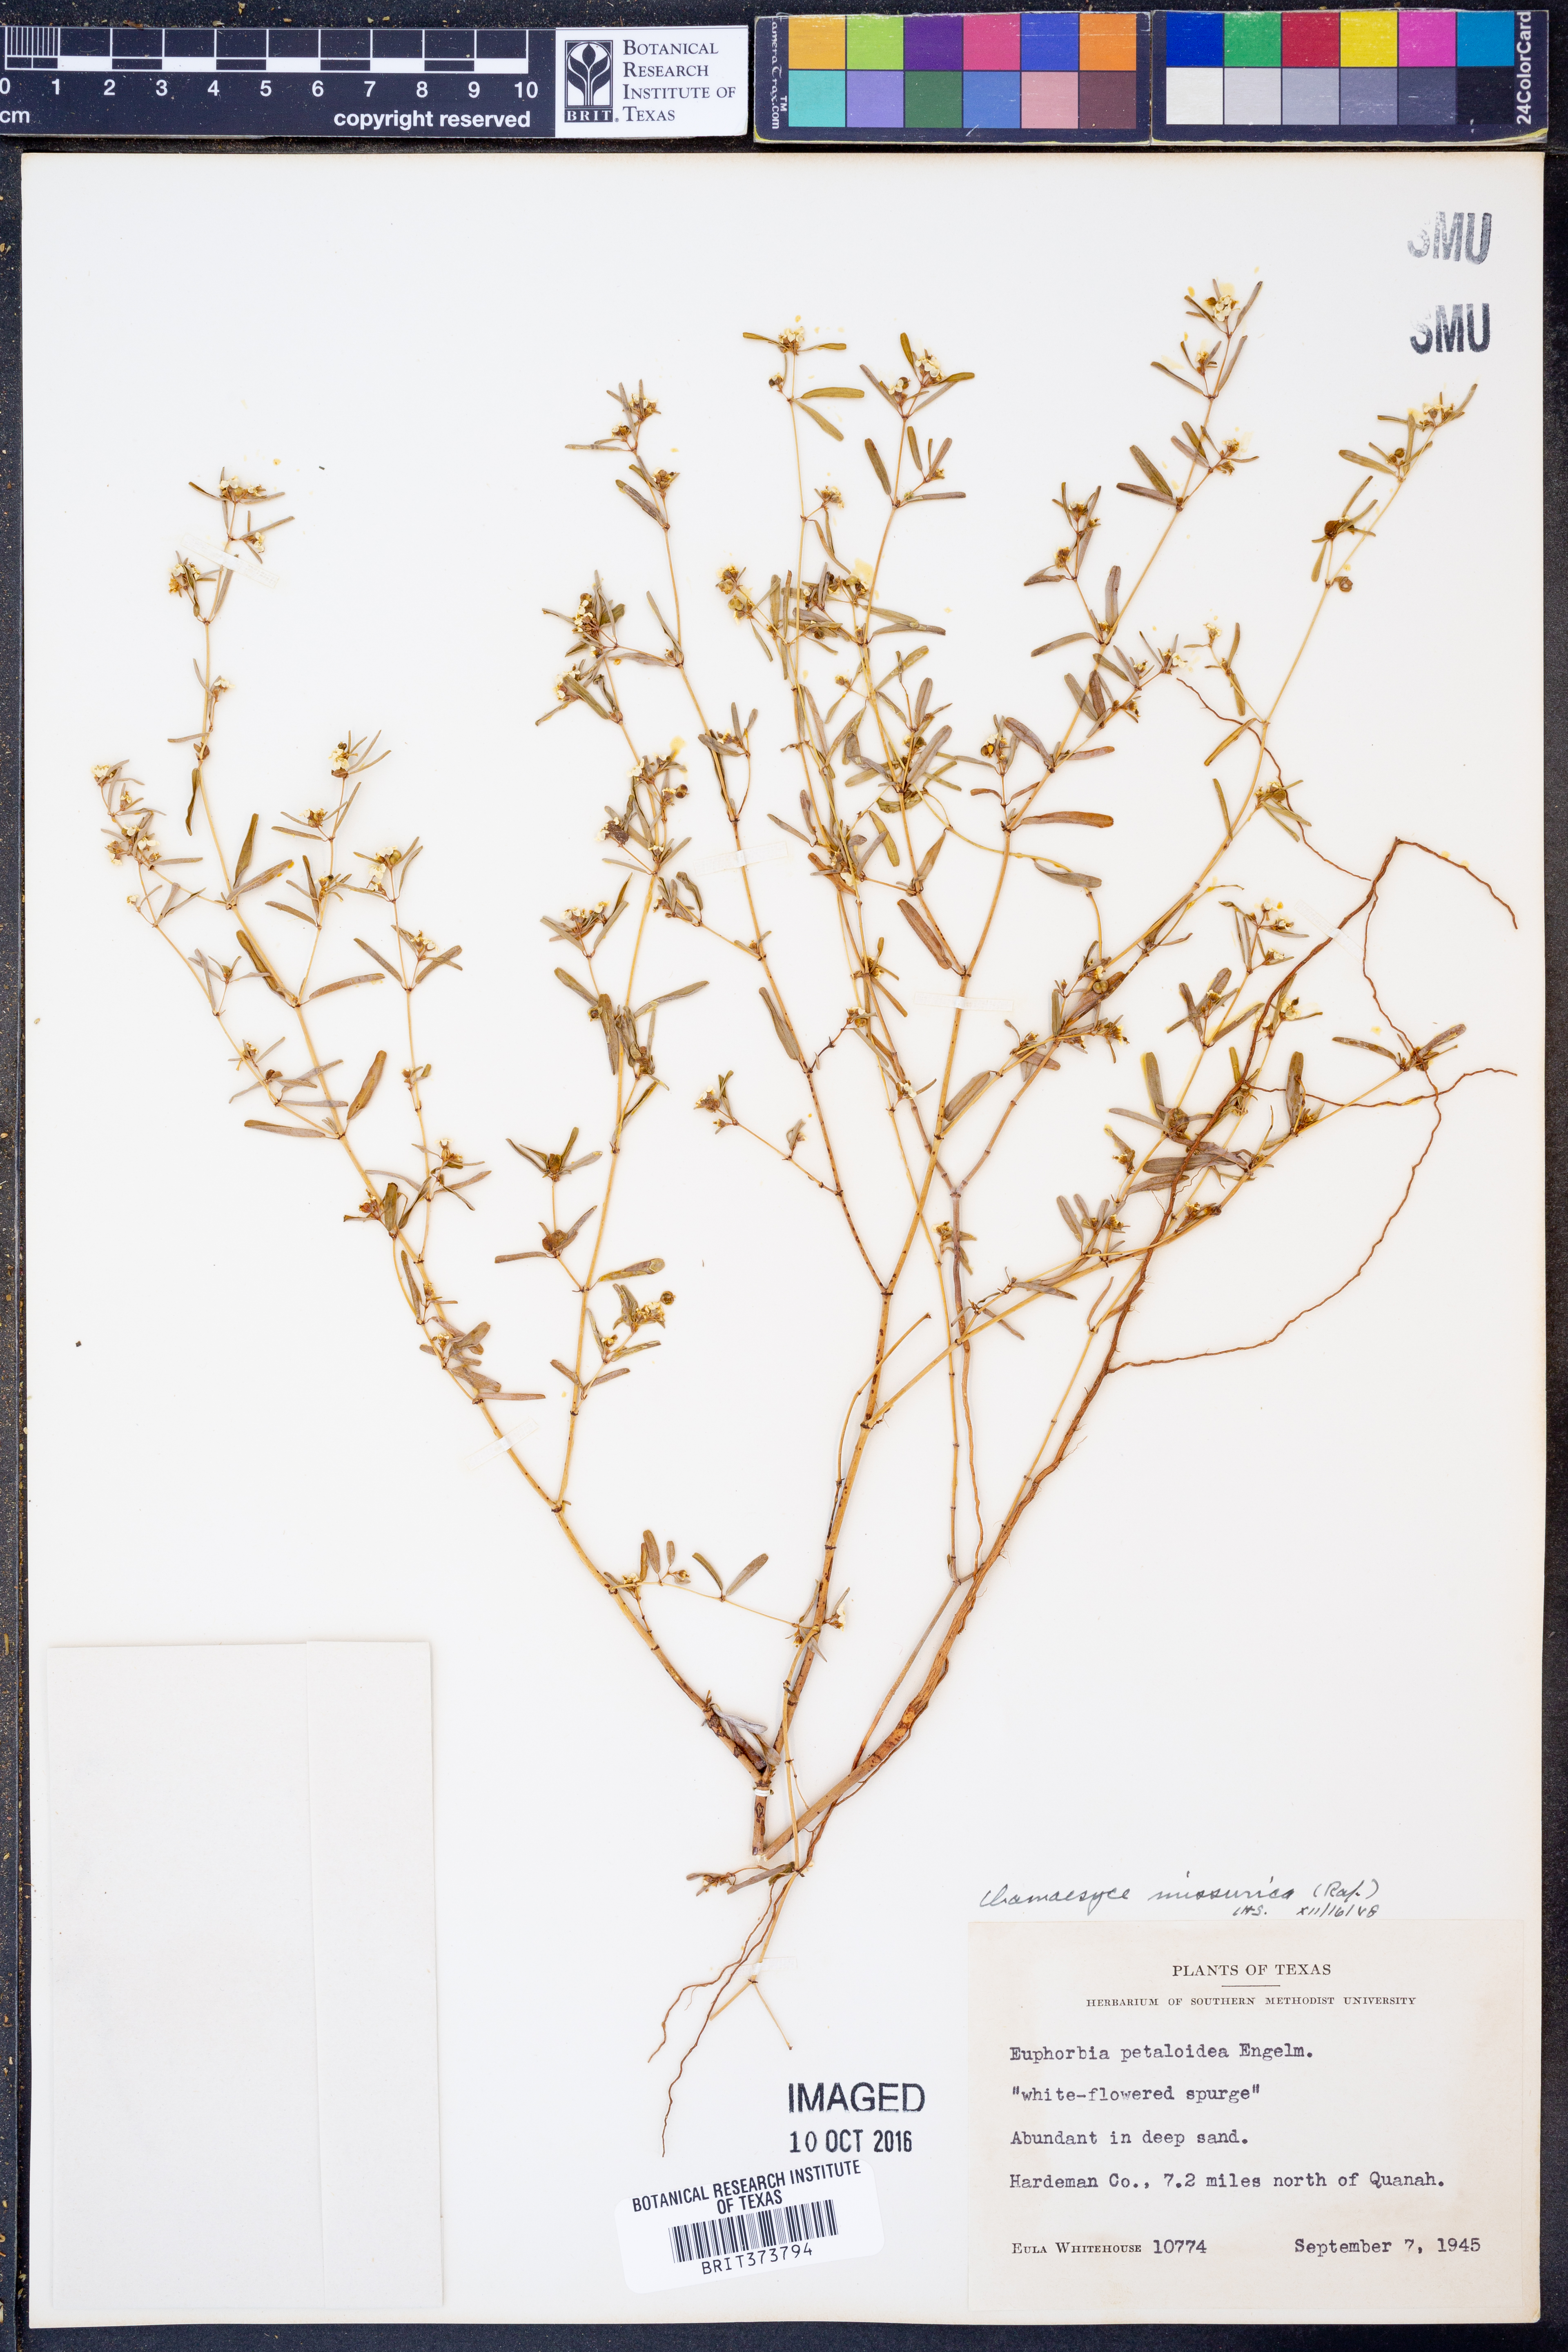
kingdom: Plantae
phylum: Tracheophyta
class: Magnoliopsida
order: Malpighiales
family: Euphorbiaceae
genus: Euphorbia
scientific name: Euphorbia missurica
